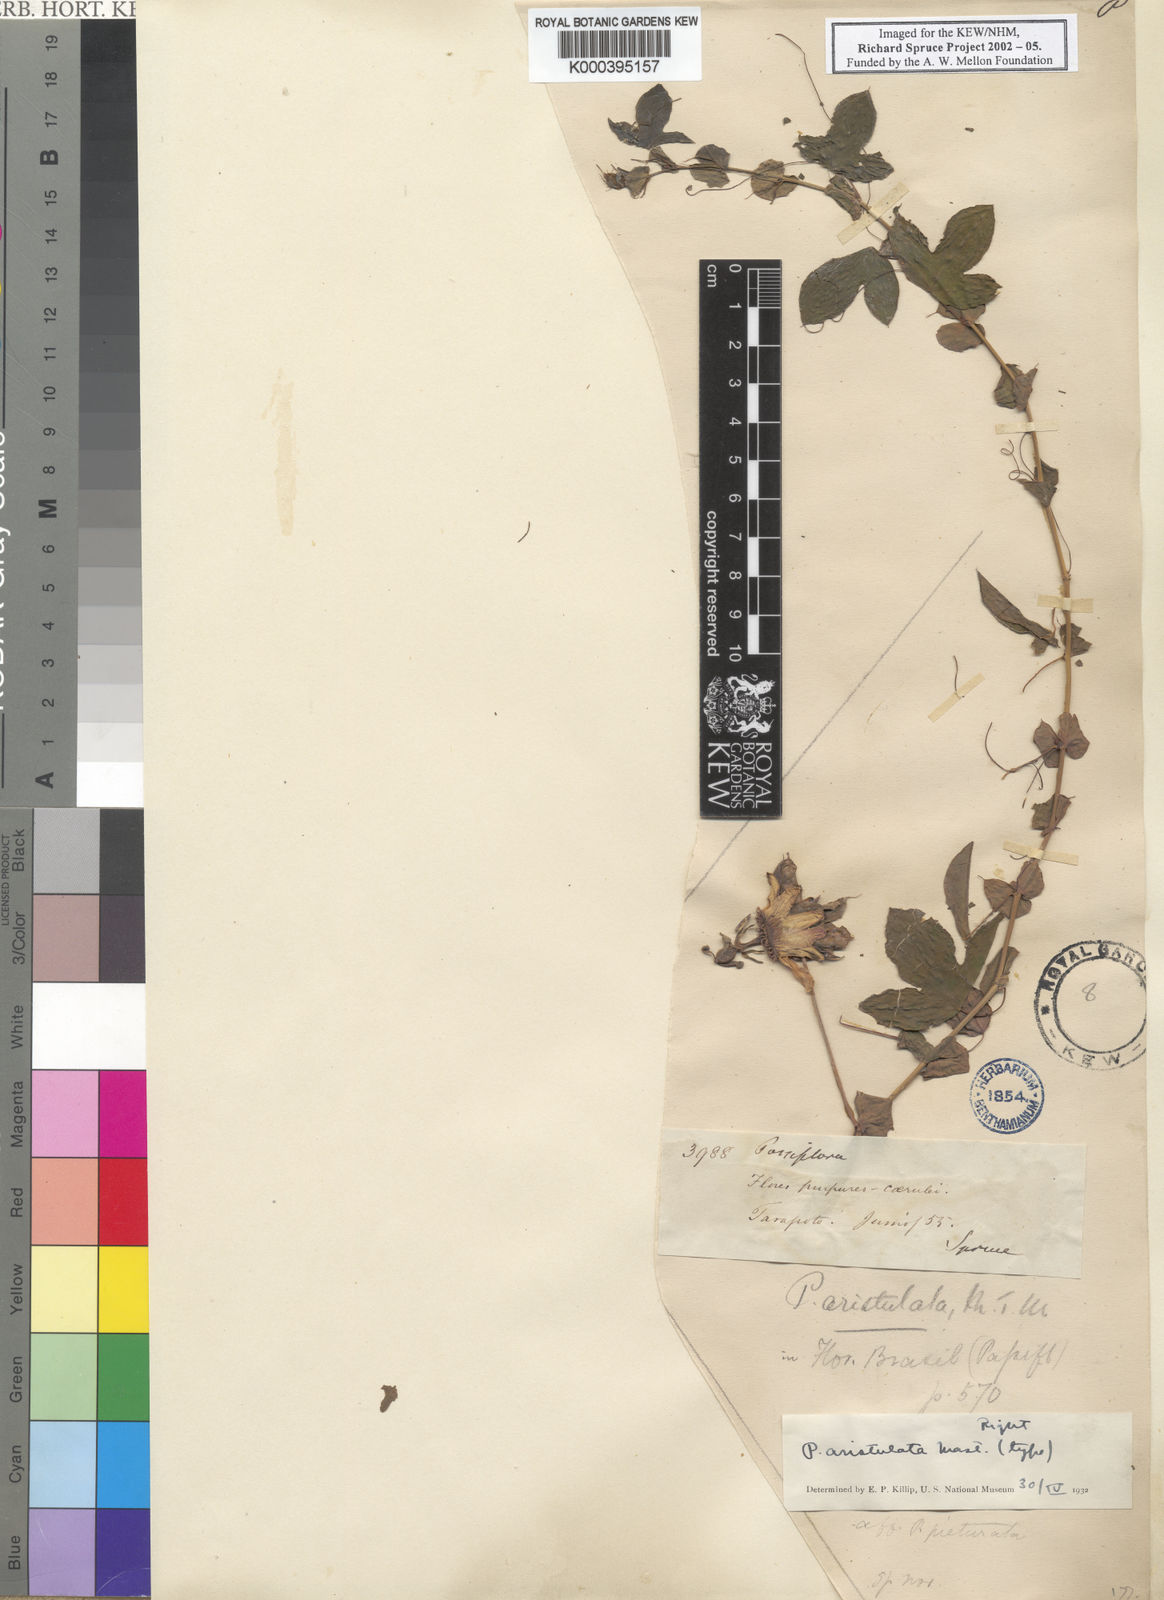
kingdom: Plantae
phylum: Tracheophyta
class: Magnoliopsida
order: Malpighiales
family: Passifloraceae
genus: Passiflora
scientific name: Passiflora aristulata
